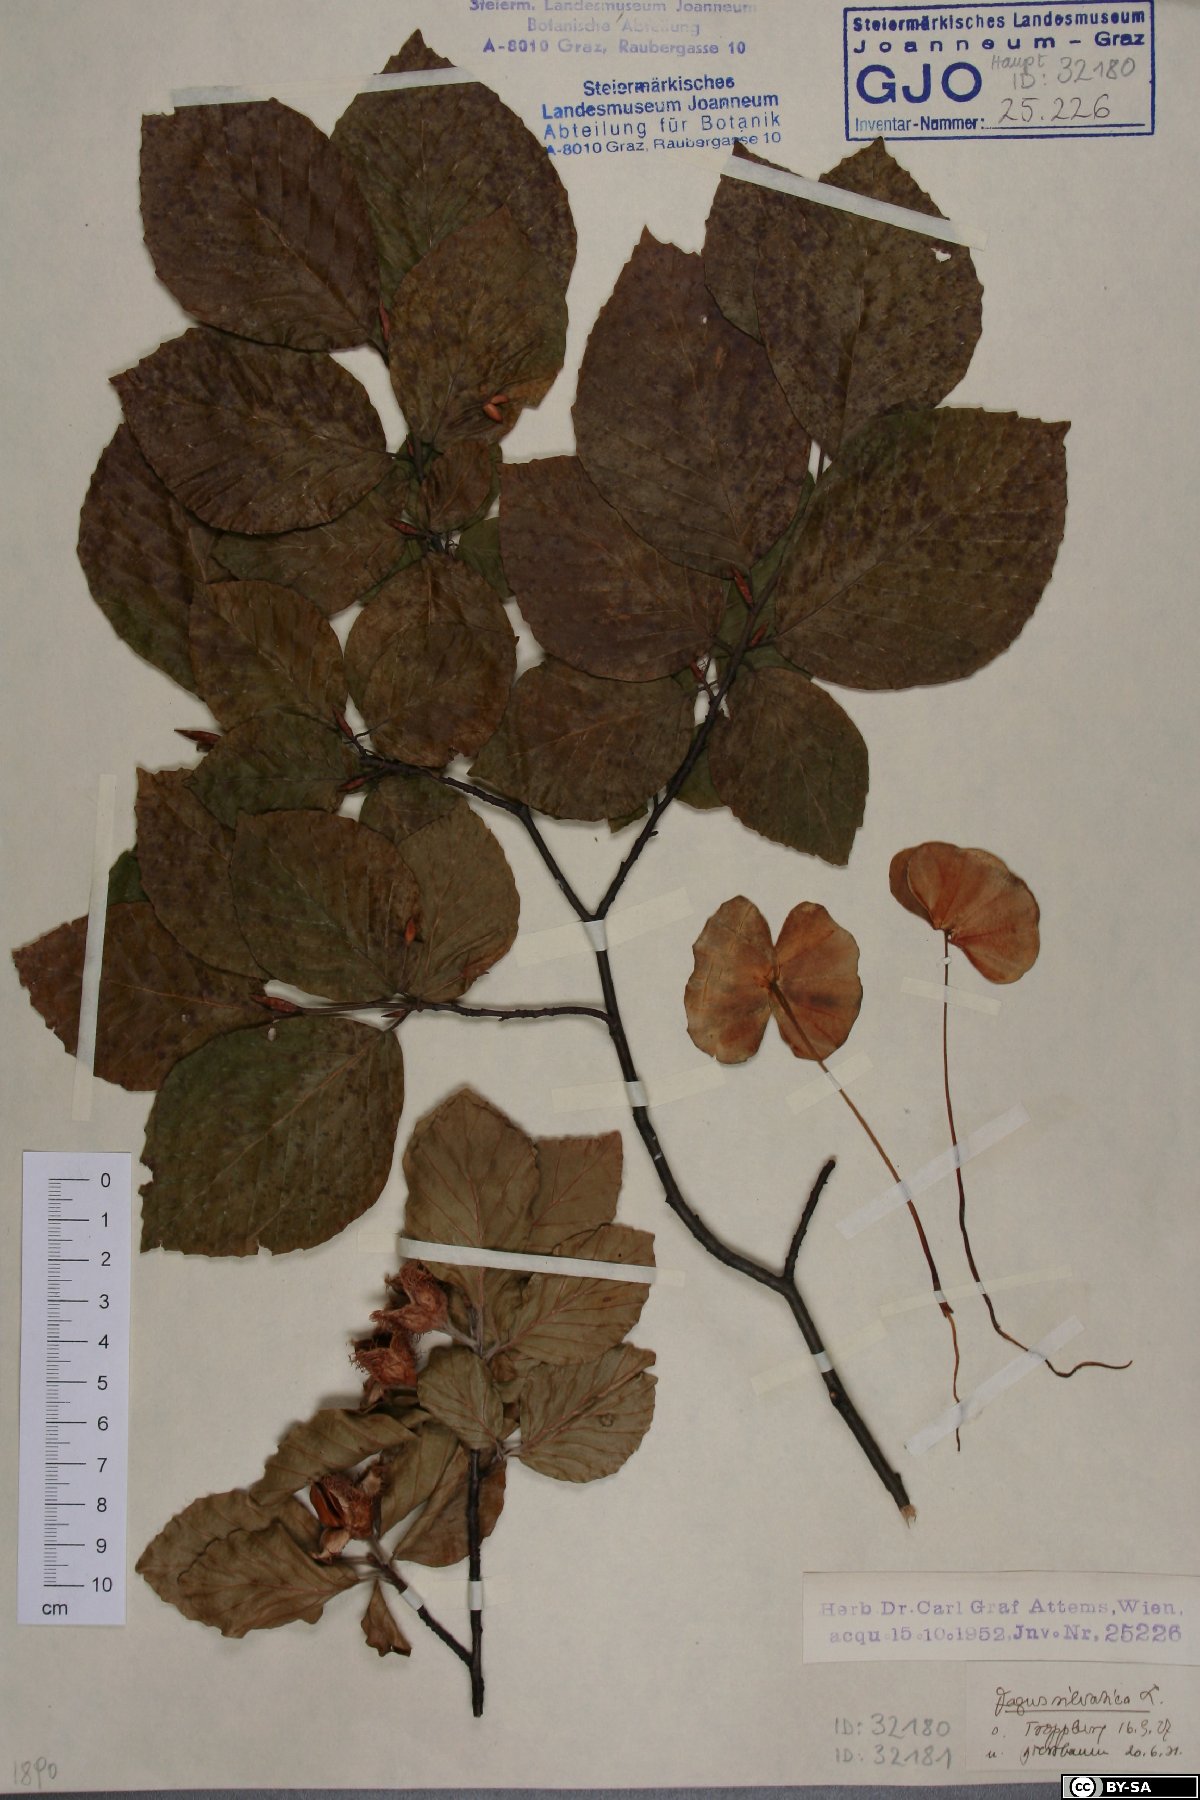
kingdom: Plantae
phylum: Tracheophyta
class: Magnoliopsida
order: Fagales
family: Fagaceae
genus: Fagus
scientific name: Fagus sylvatica
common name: Beech
